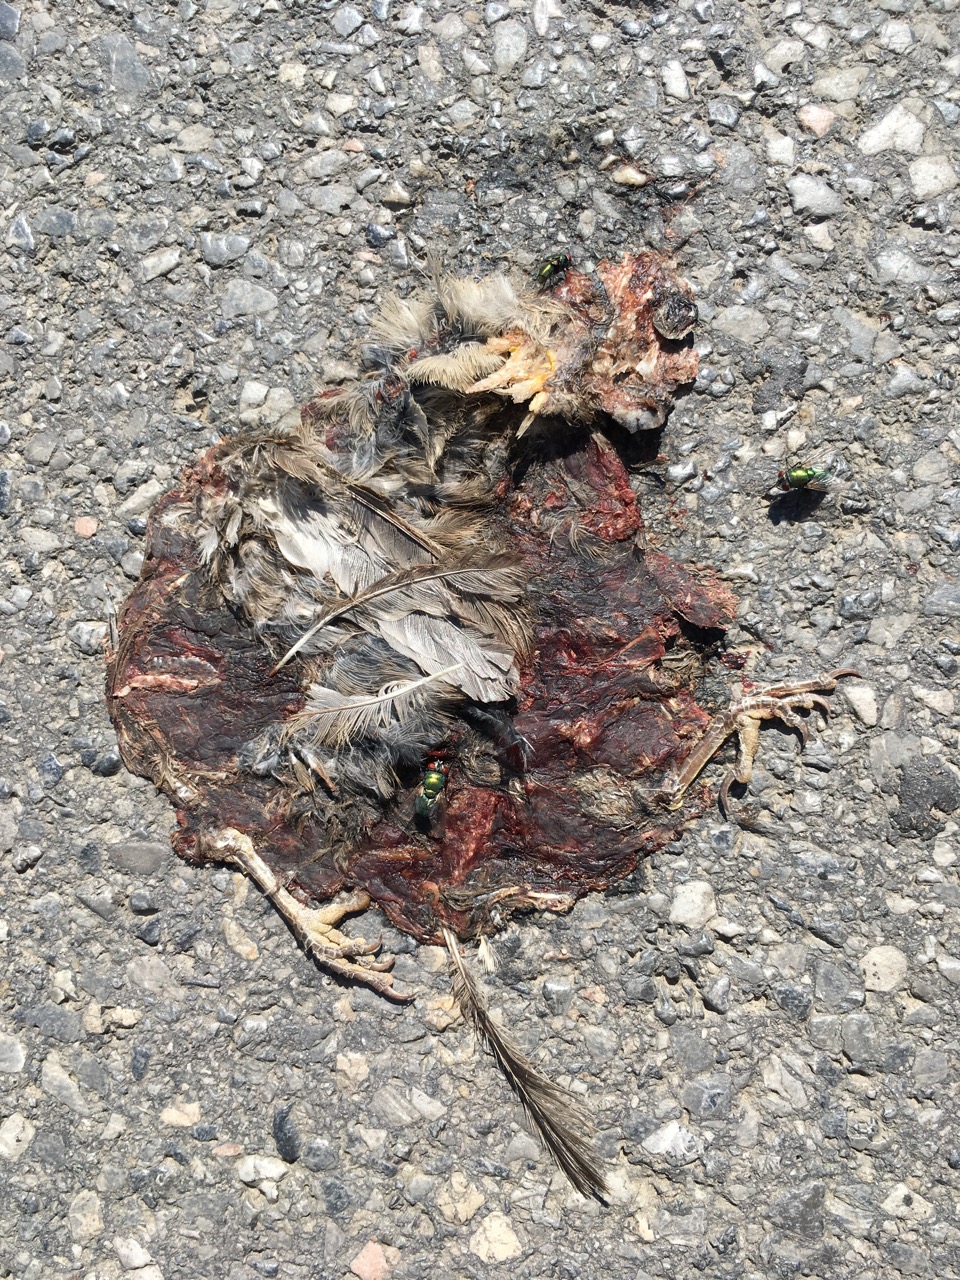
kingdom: Animalia
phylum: Chordata
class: Aves
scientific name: Aves
